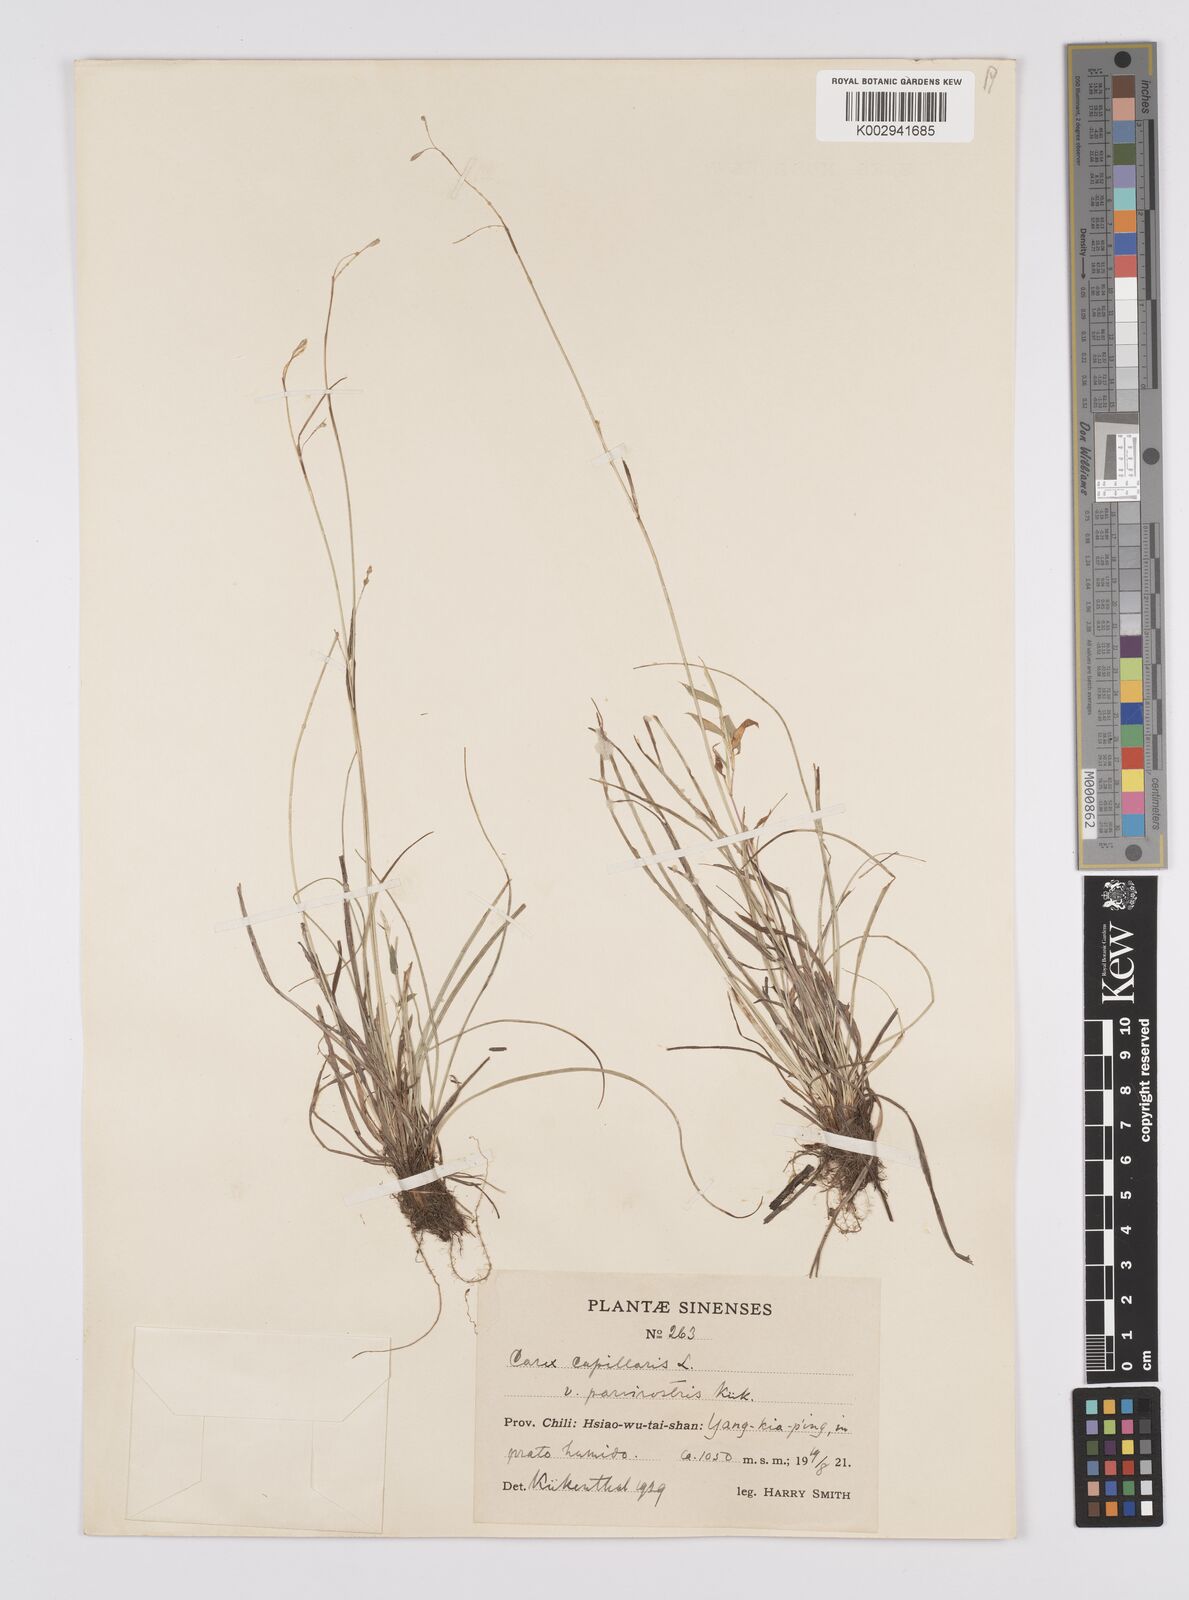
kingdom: Plantae
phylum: Tracheophyta
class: Liliopsida
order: Poales
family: Cyperaceae
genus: Carex
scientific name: Carex capillaris
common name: Hair sedge
